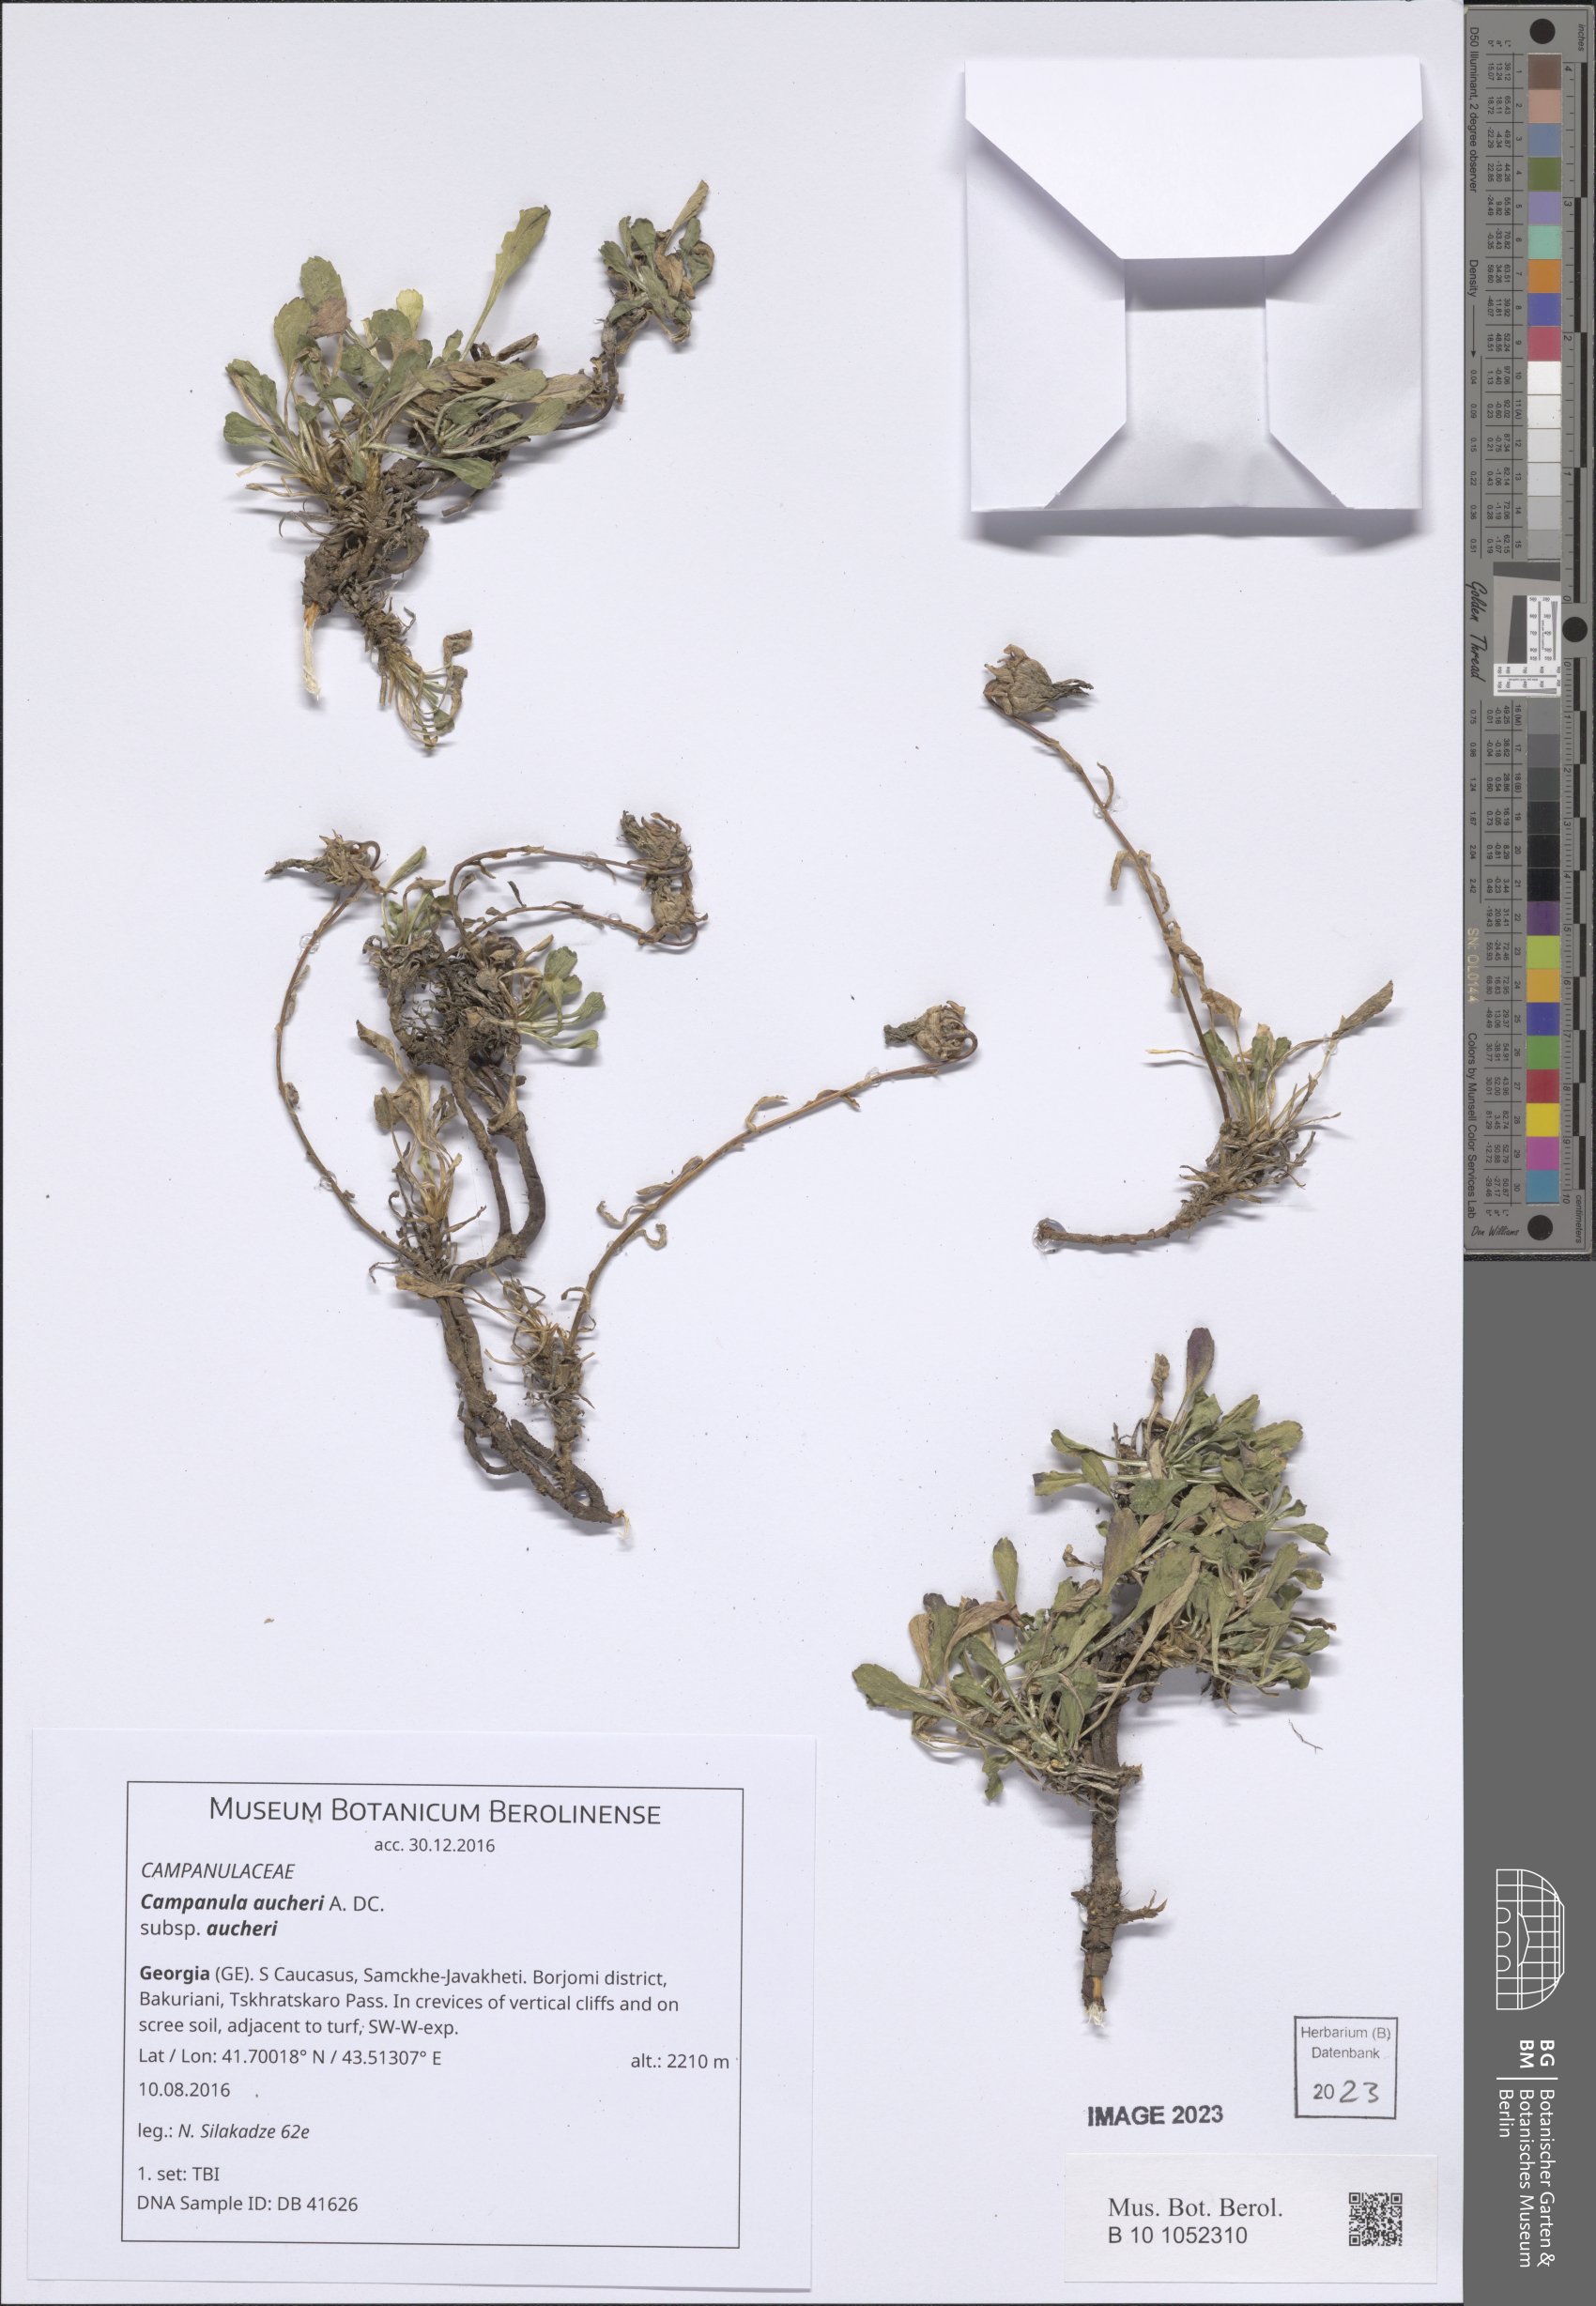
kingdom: Plantae
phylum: Tracheophyta
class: Magnoliopsida
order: Asterales
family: Campanulaceae
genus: Campanula
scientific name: Campanula saxifraga
